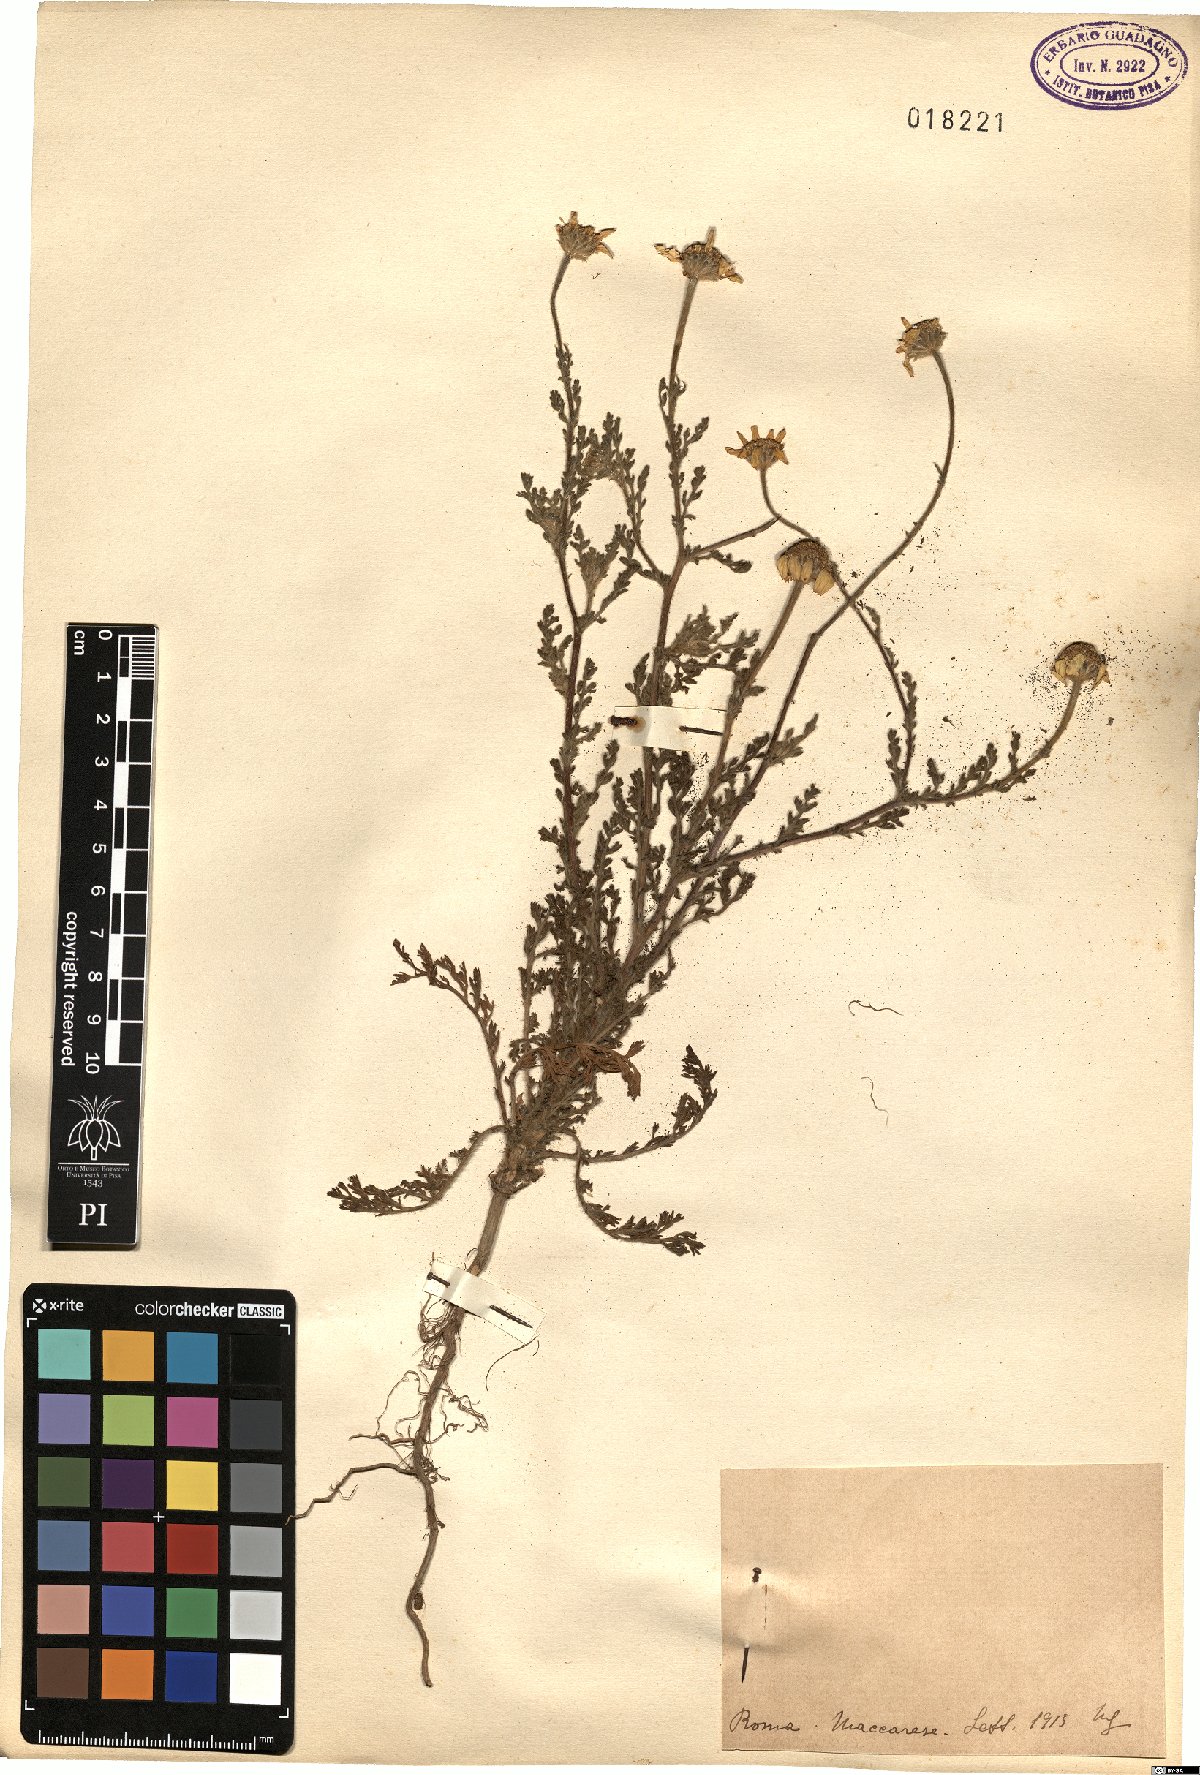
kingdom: Plantae
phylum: Tracheophyta
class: Magnoliopsida
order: Asterales
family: Asteraceae
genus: Anacyclus
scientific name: Anacyclus
